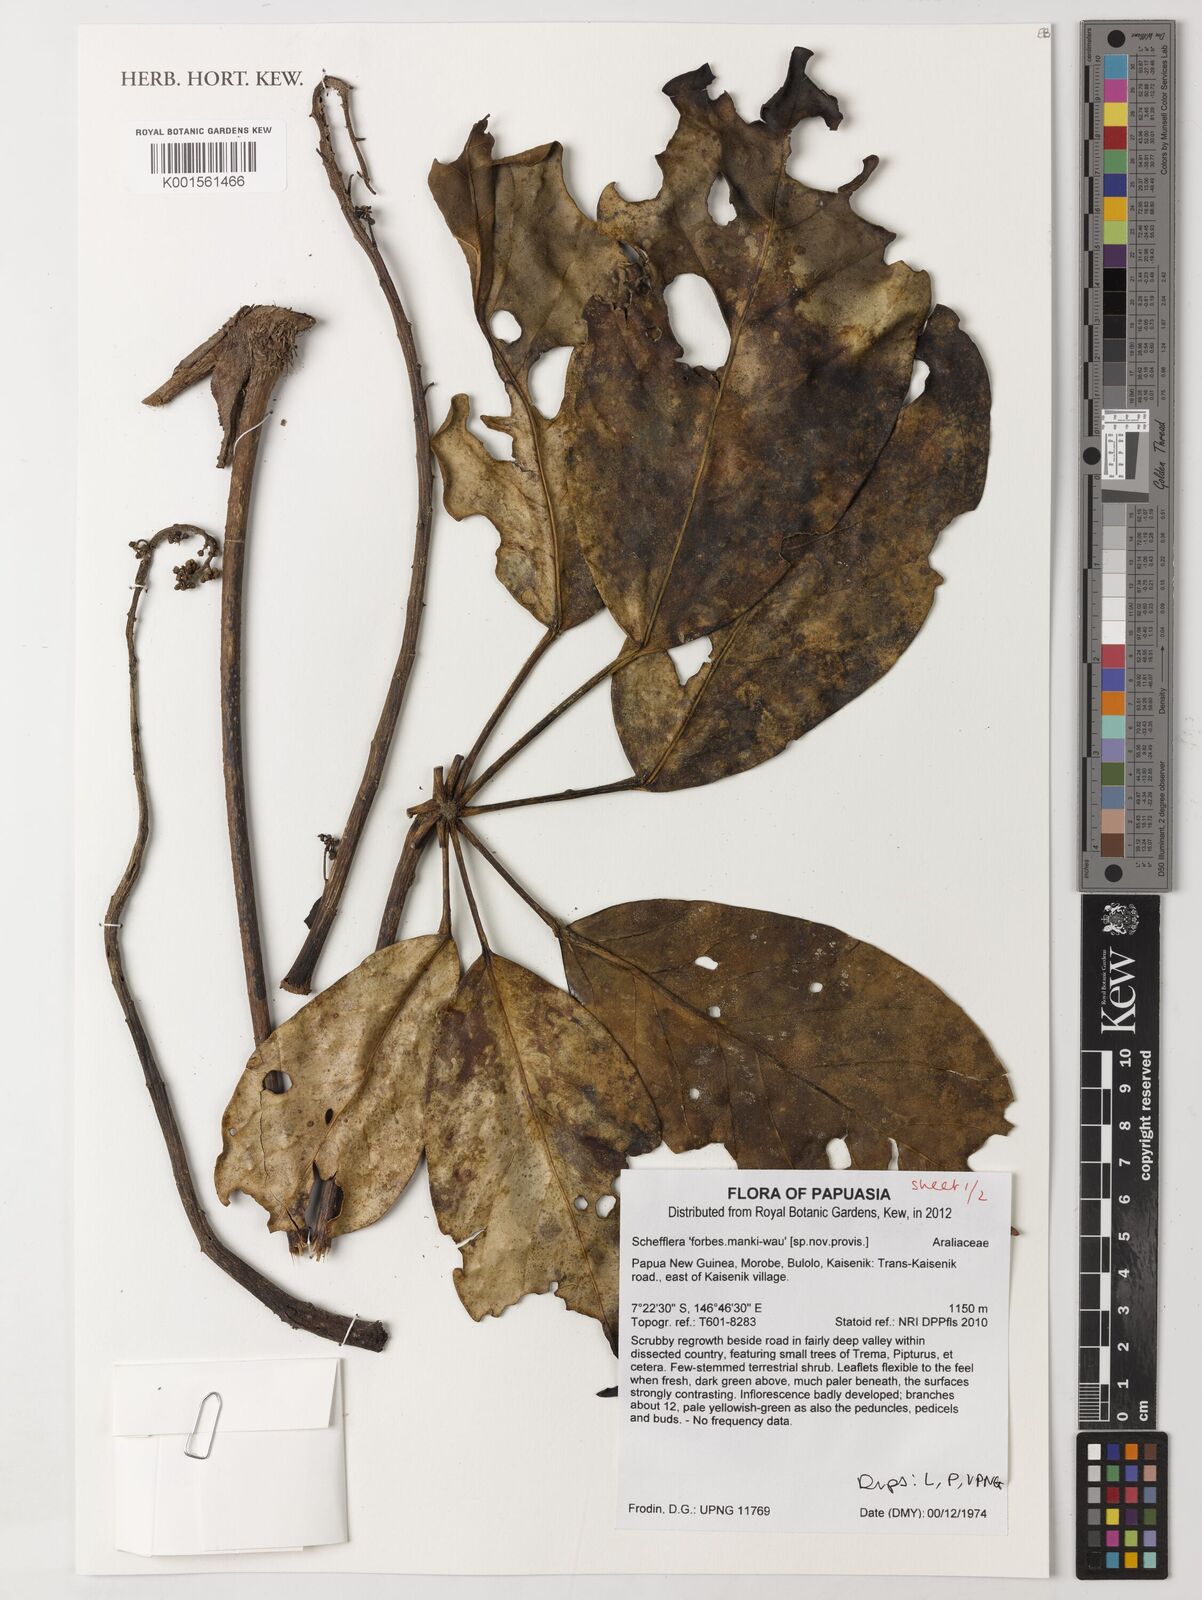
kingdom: Plantae
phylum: Tracheophyta
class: Magnoliopsida
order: Apiales
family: Araliaceae
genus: Schefflera
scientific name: Schefflera
